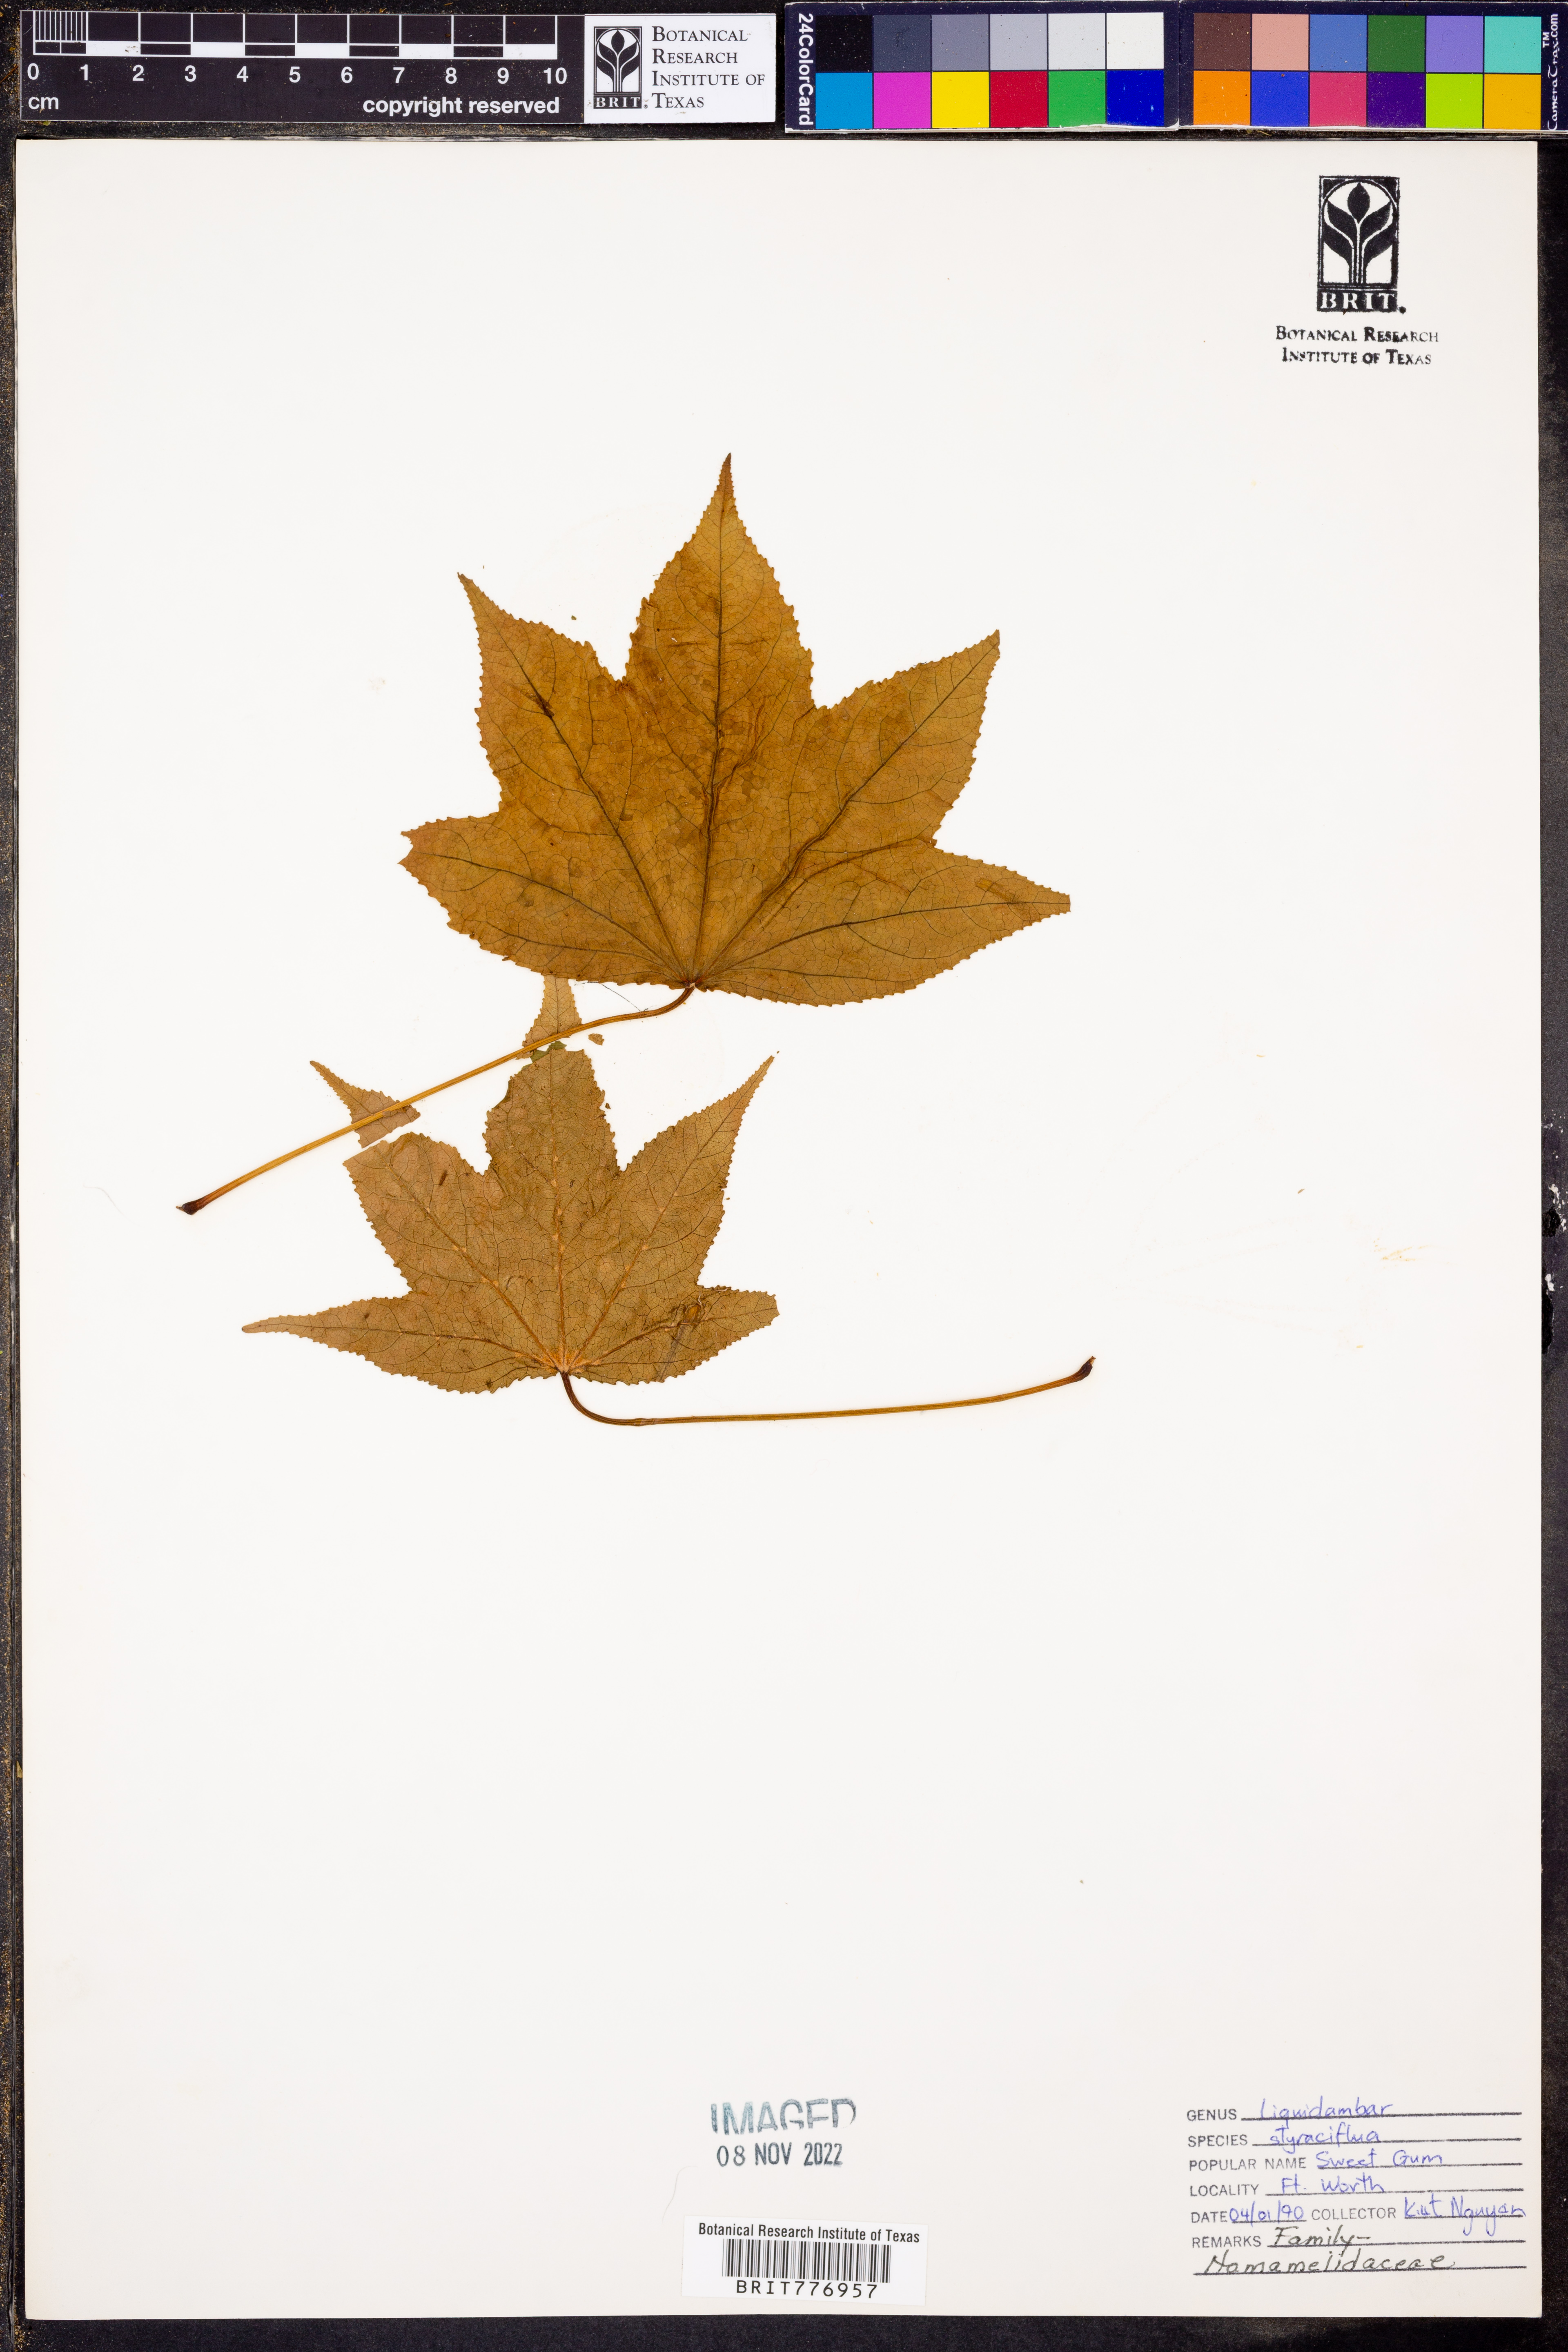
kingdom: Plantae
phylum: Tracheophyta
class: Magnoliopsida
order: Saxifragales
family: Altingiaceae
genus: Liquidambar
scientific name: Liquidambar styraciflua
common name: Sweet gum
